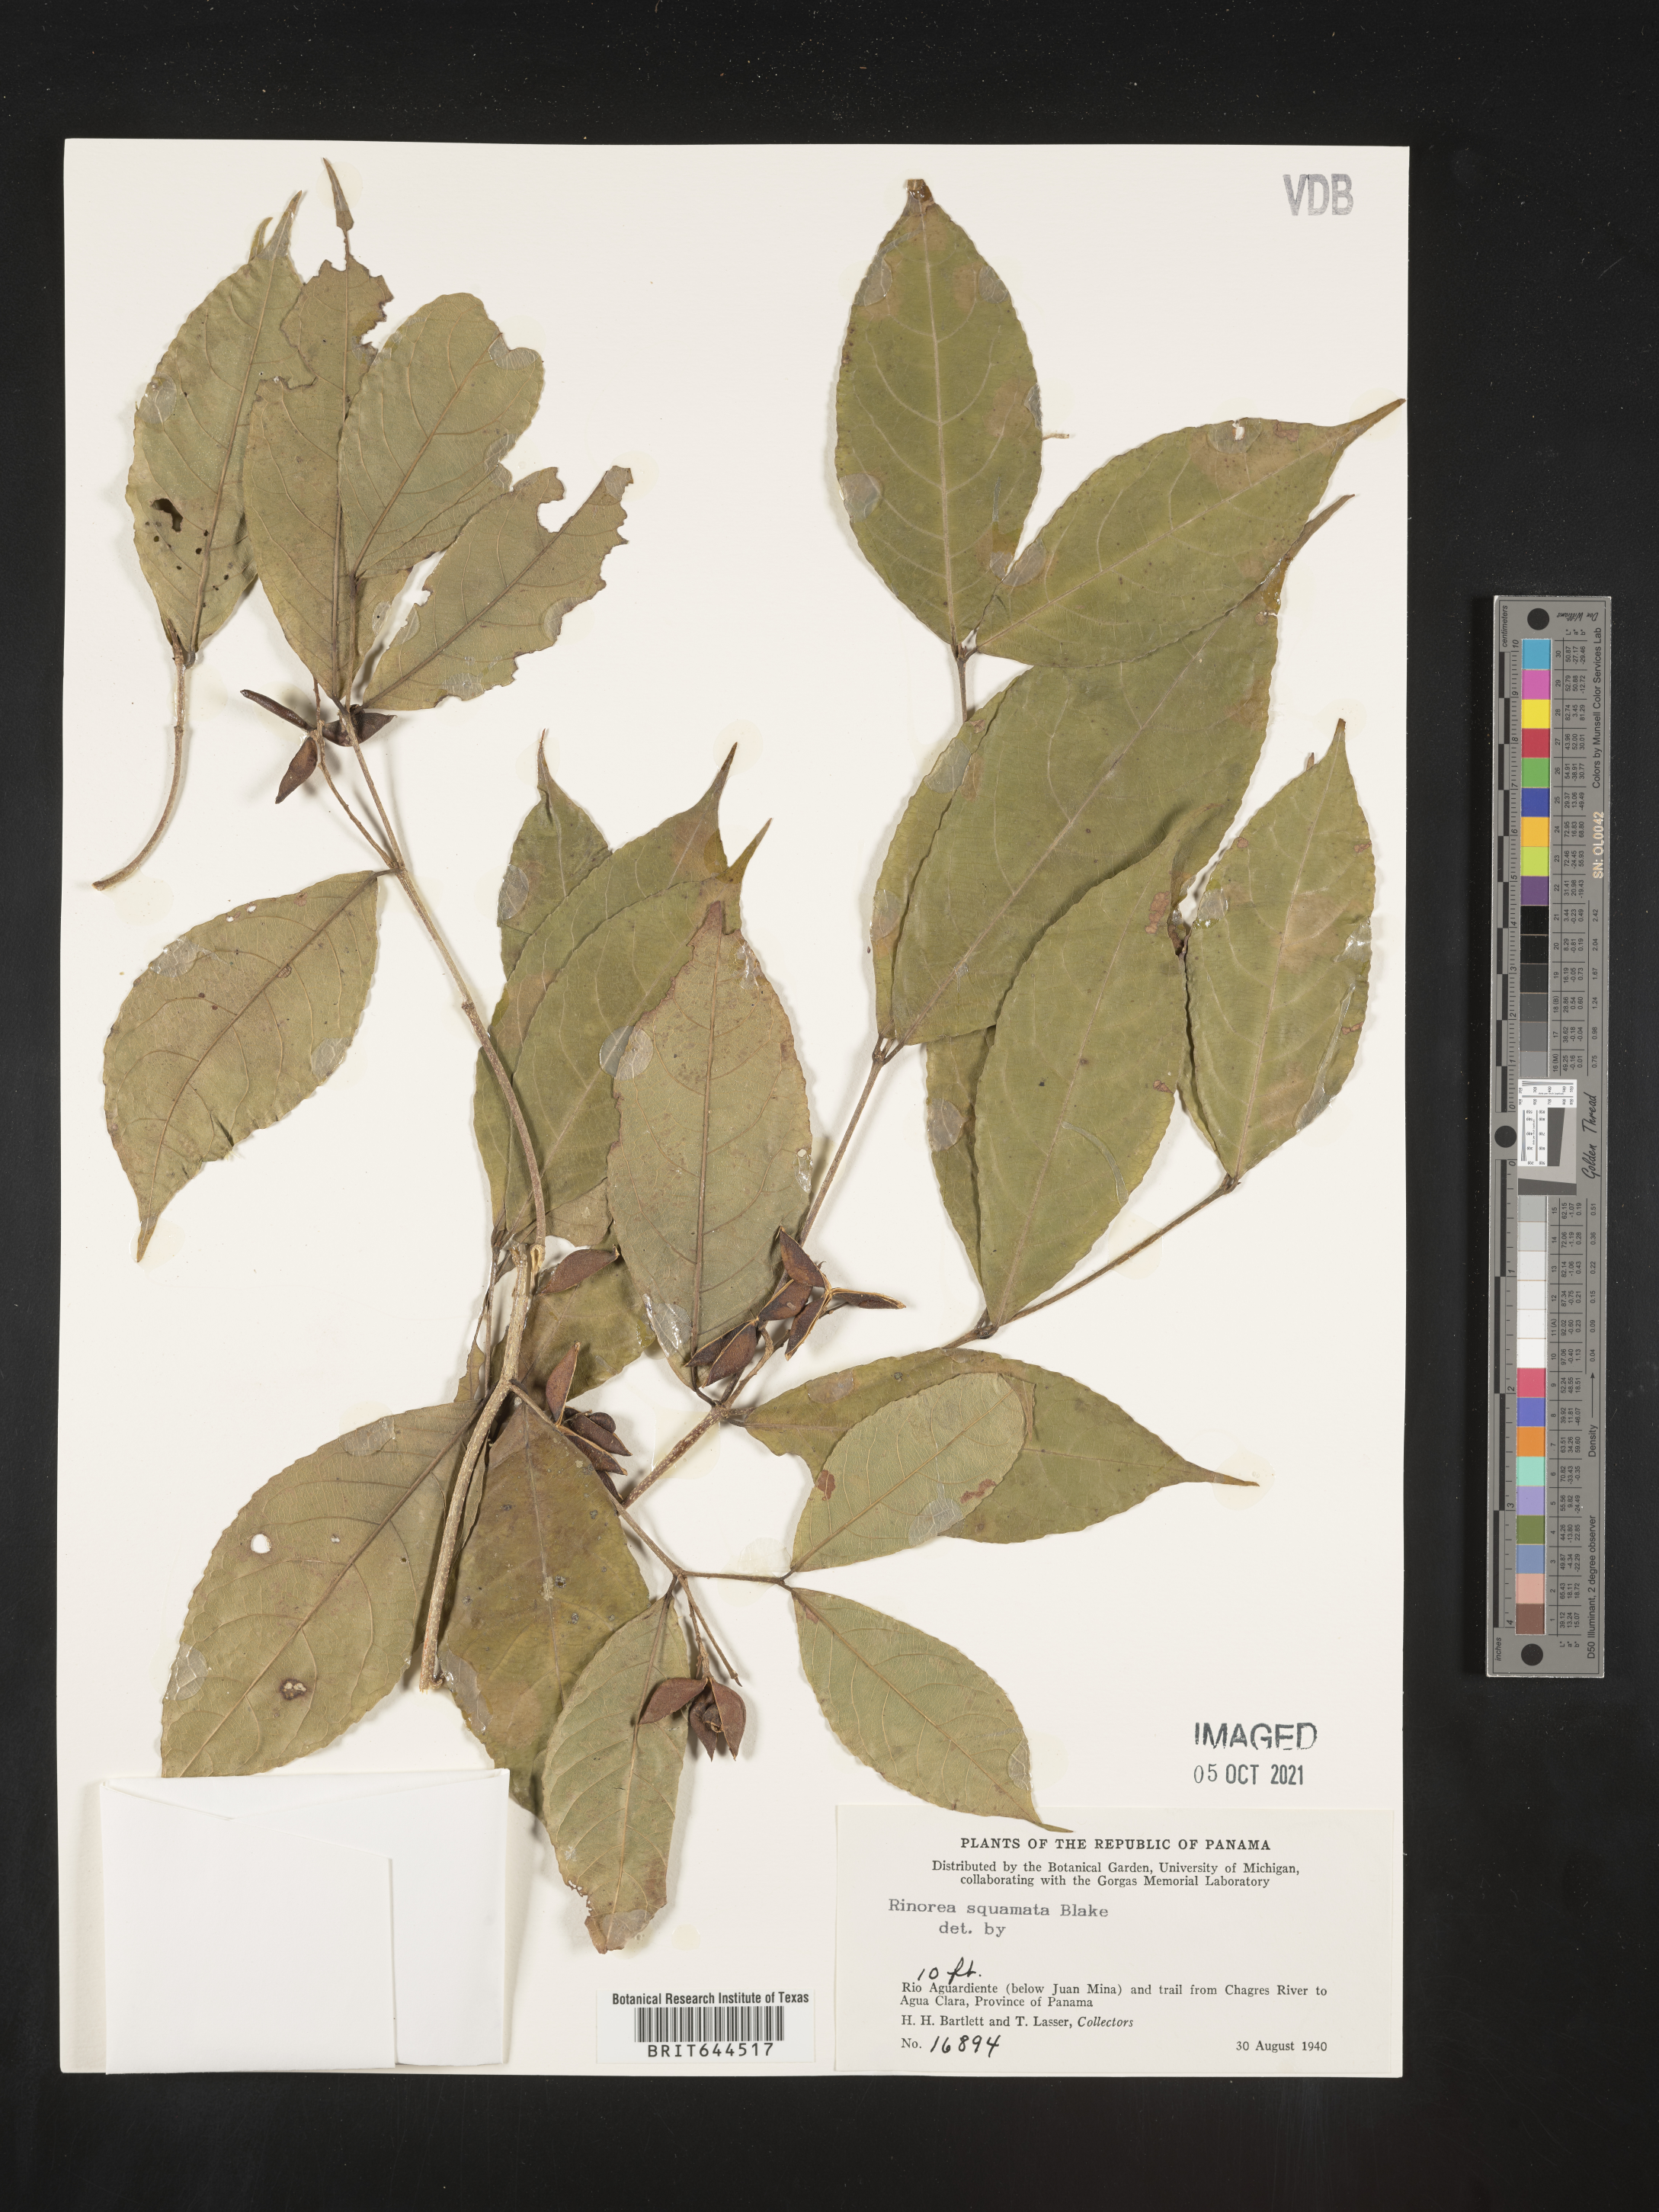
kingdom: Plantae
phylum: Tracheophyta
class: Magnoliopsida
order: Malpighiales
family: Violaceae
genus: Rinorea
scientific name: Rinorea
